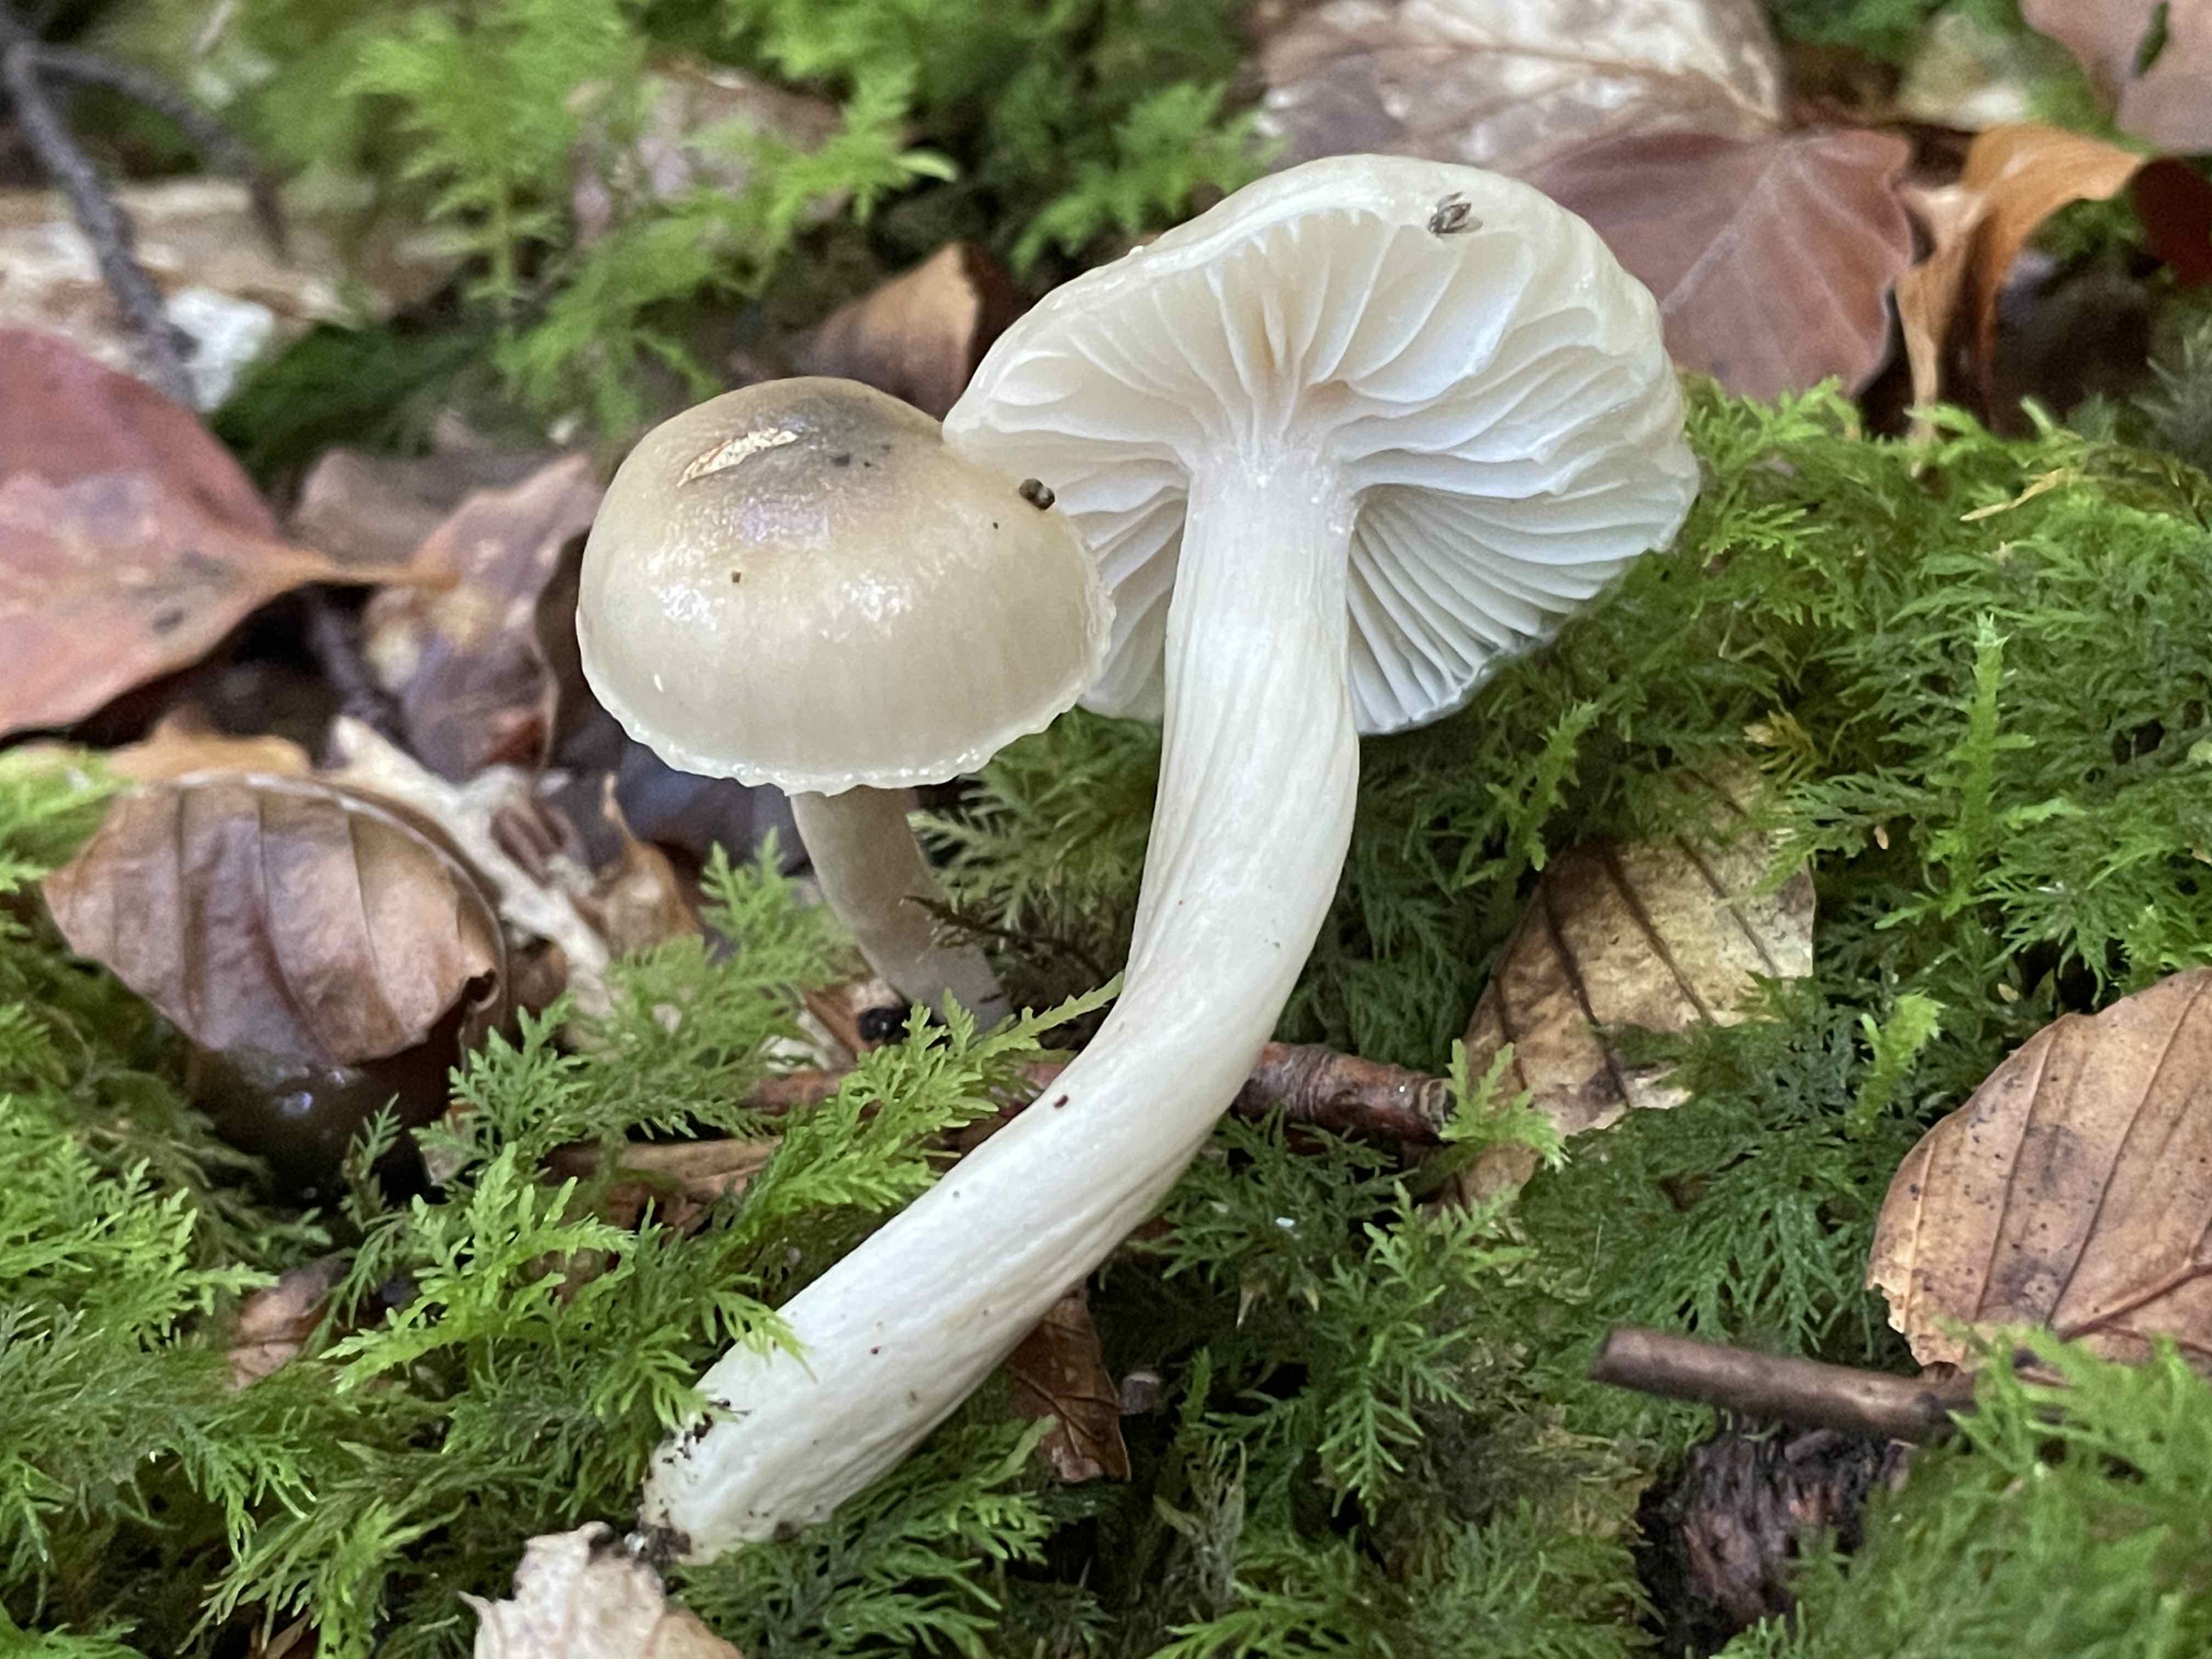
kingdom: Fungi
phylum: Basidiomycota
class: Agaricomycetes
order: Agaricales
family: Hygrophoraceae
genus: Hygrophorus
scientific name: Hygrophorus mesotephrus
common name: askegrå sneglehat
